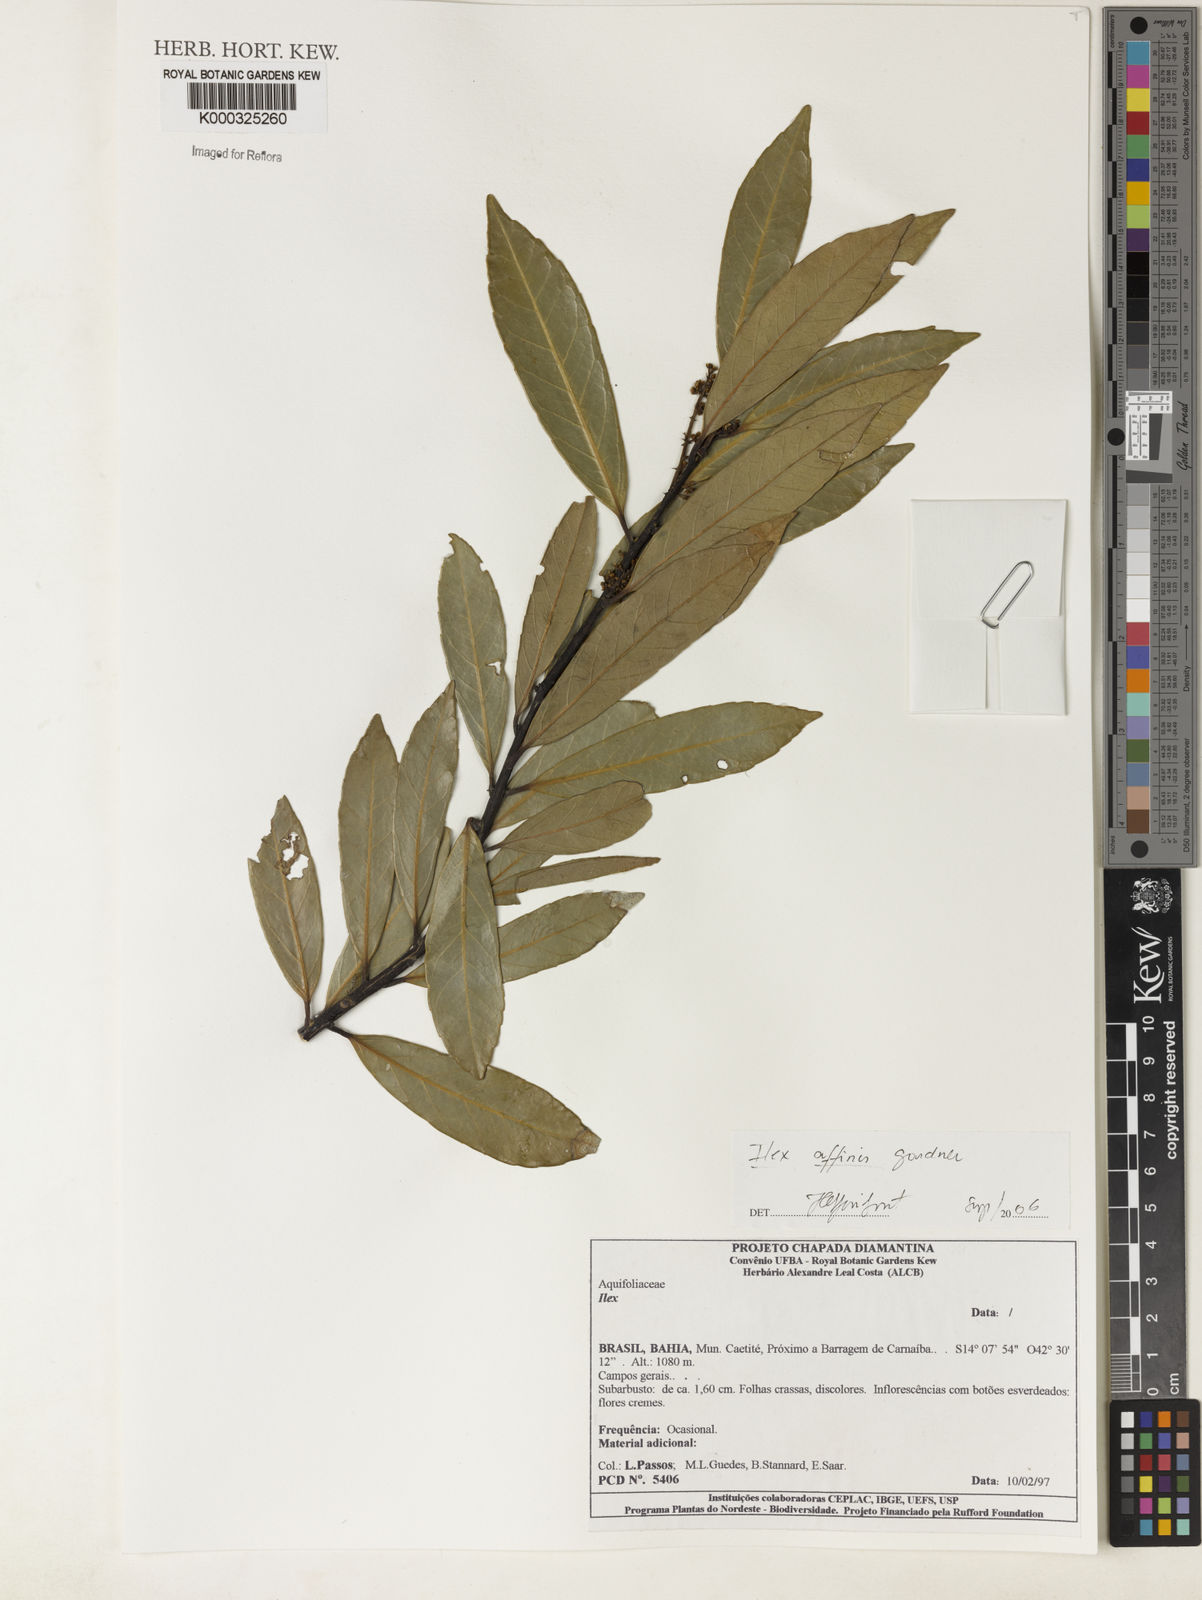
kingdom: Plantae
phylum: Tracheophyta
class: Magnoliopsida
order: Aquifoliales
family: Aquifoliaceae
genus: Ilex
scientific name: Ilex affinis
